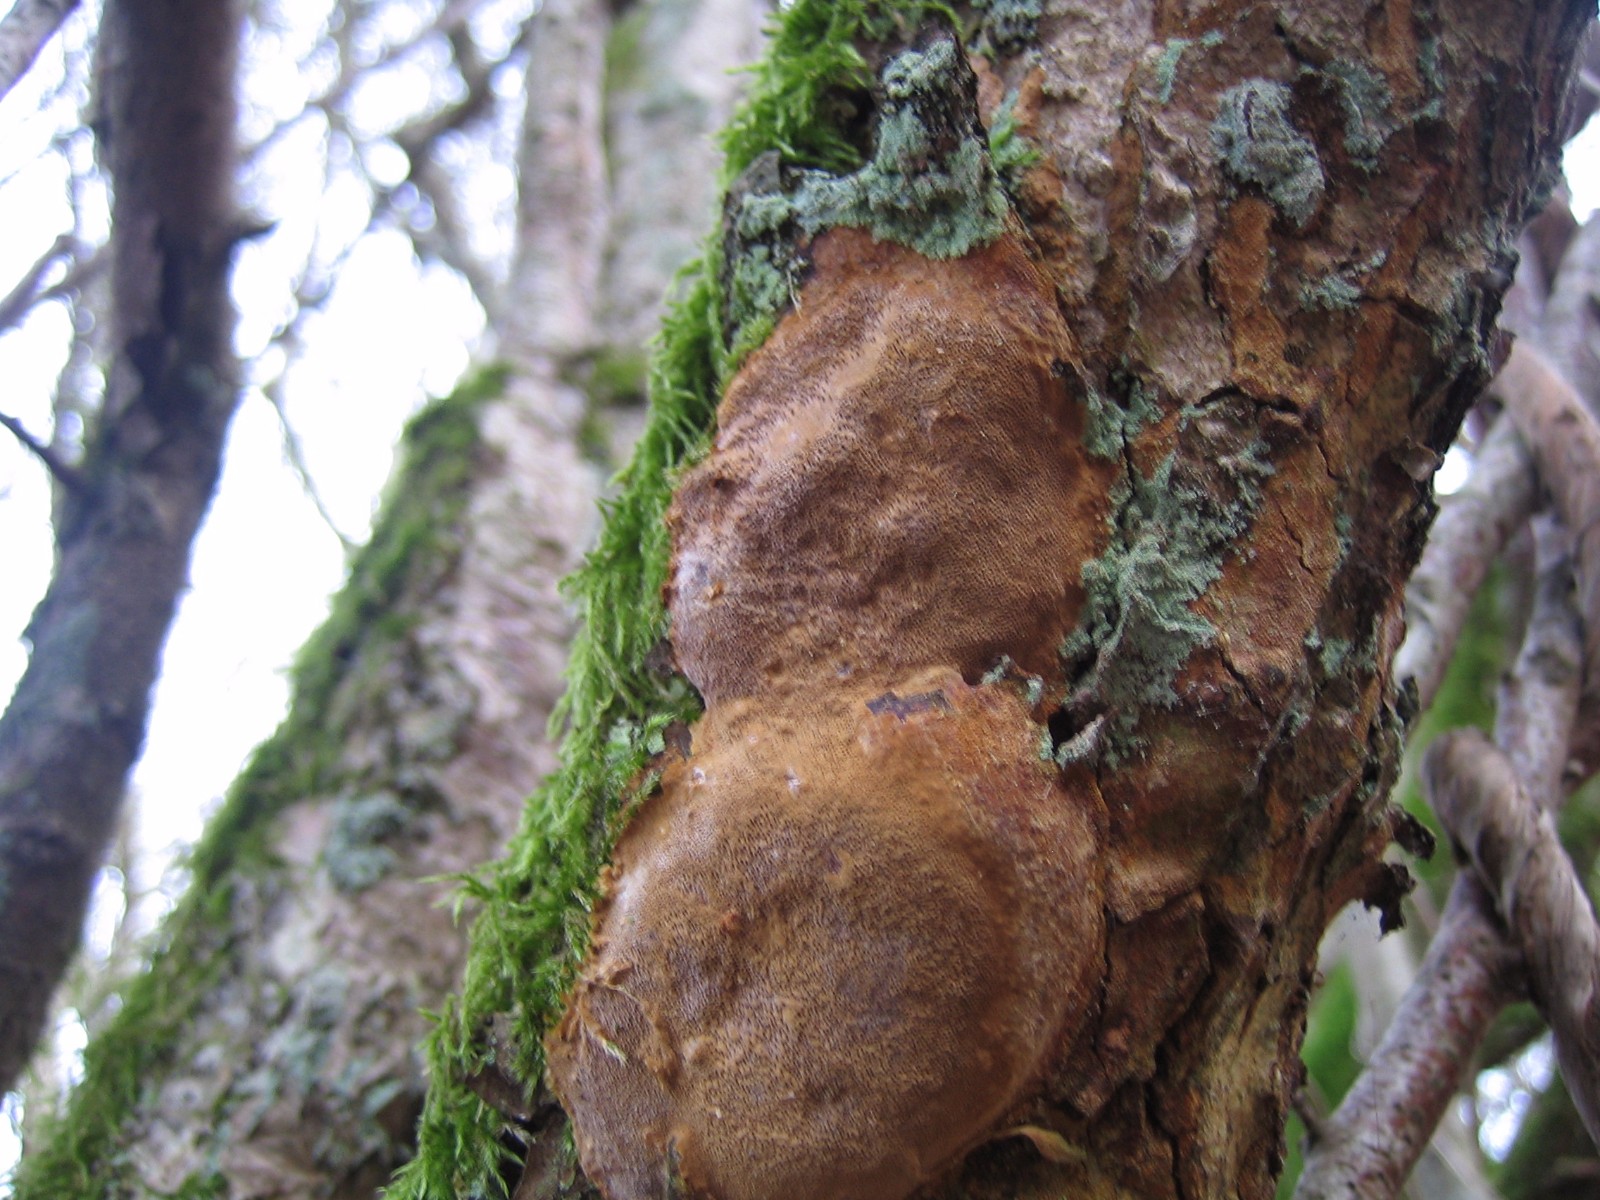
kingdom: Fungi
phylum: Basidiomycota
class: Agaricomycetes
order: Hymenochaetales
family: Hymenochaetaceae
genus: Fuscoporia
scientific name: Fuscoporia ferrea
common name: skorpe-ildporesvamp
